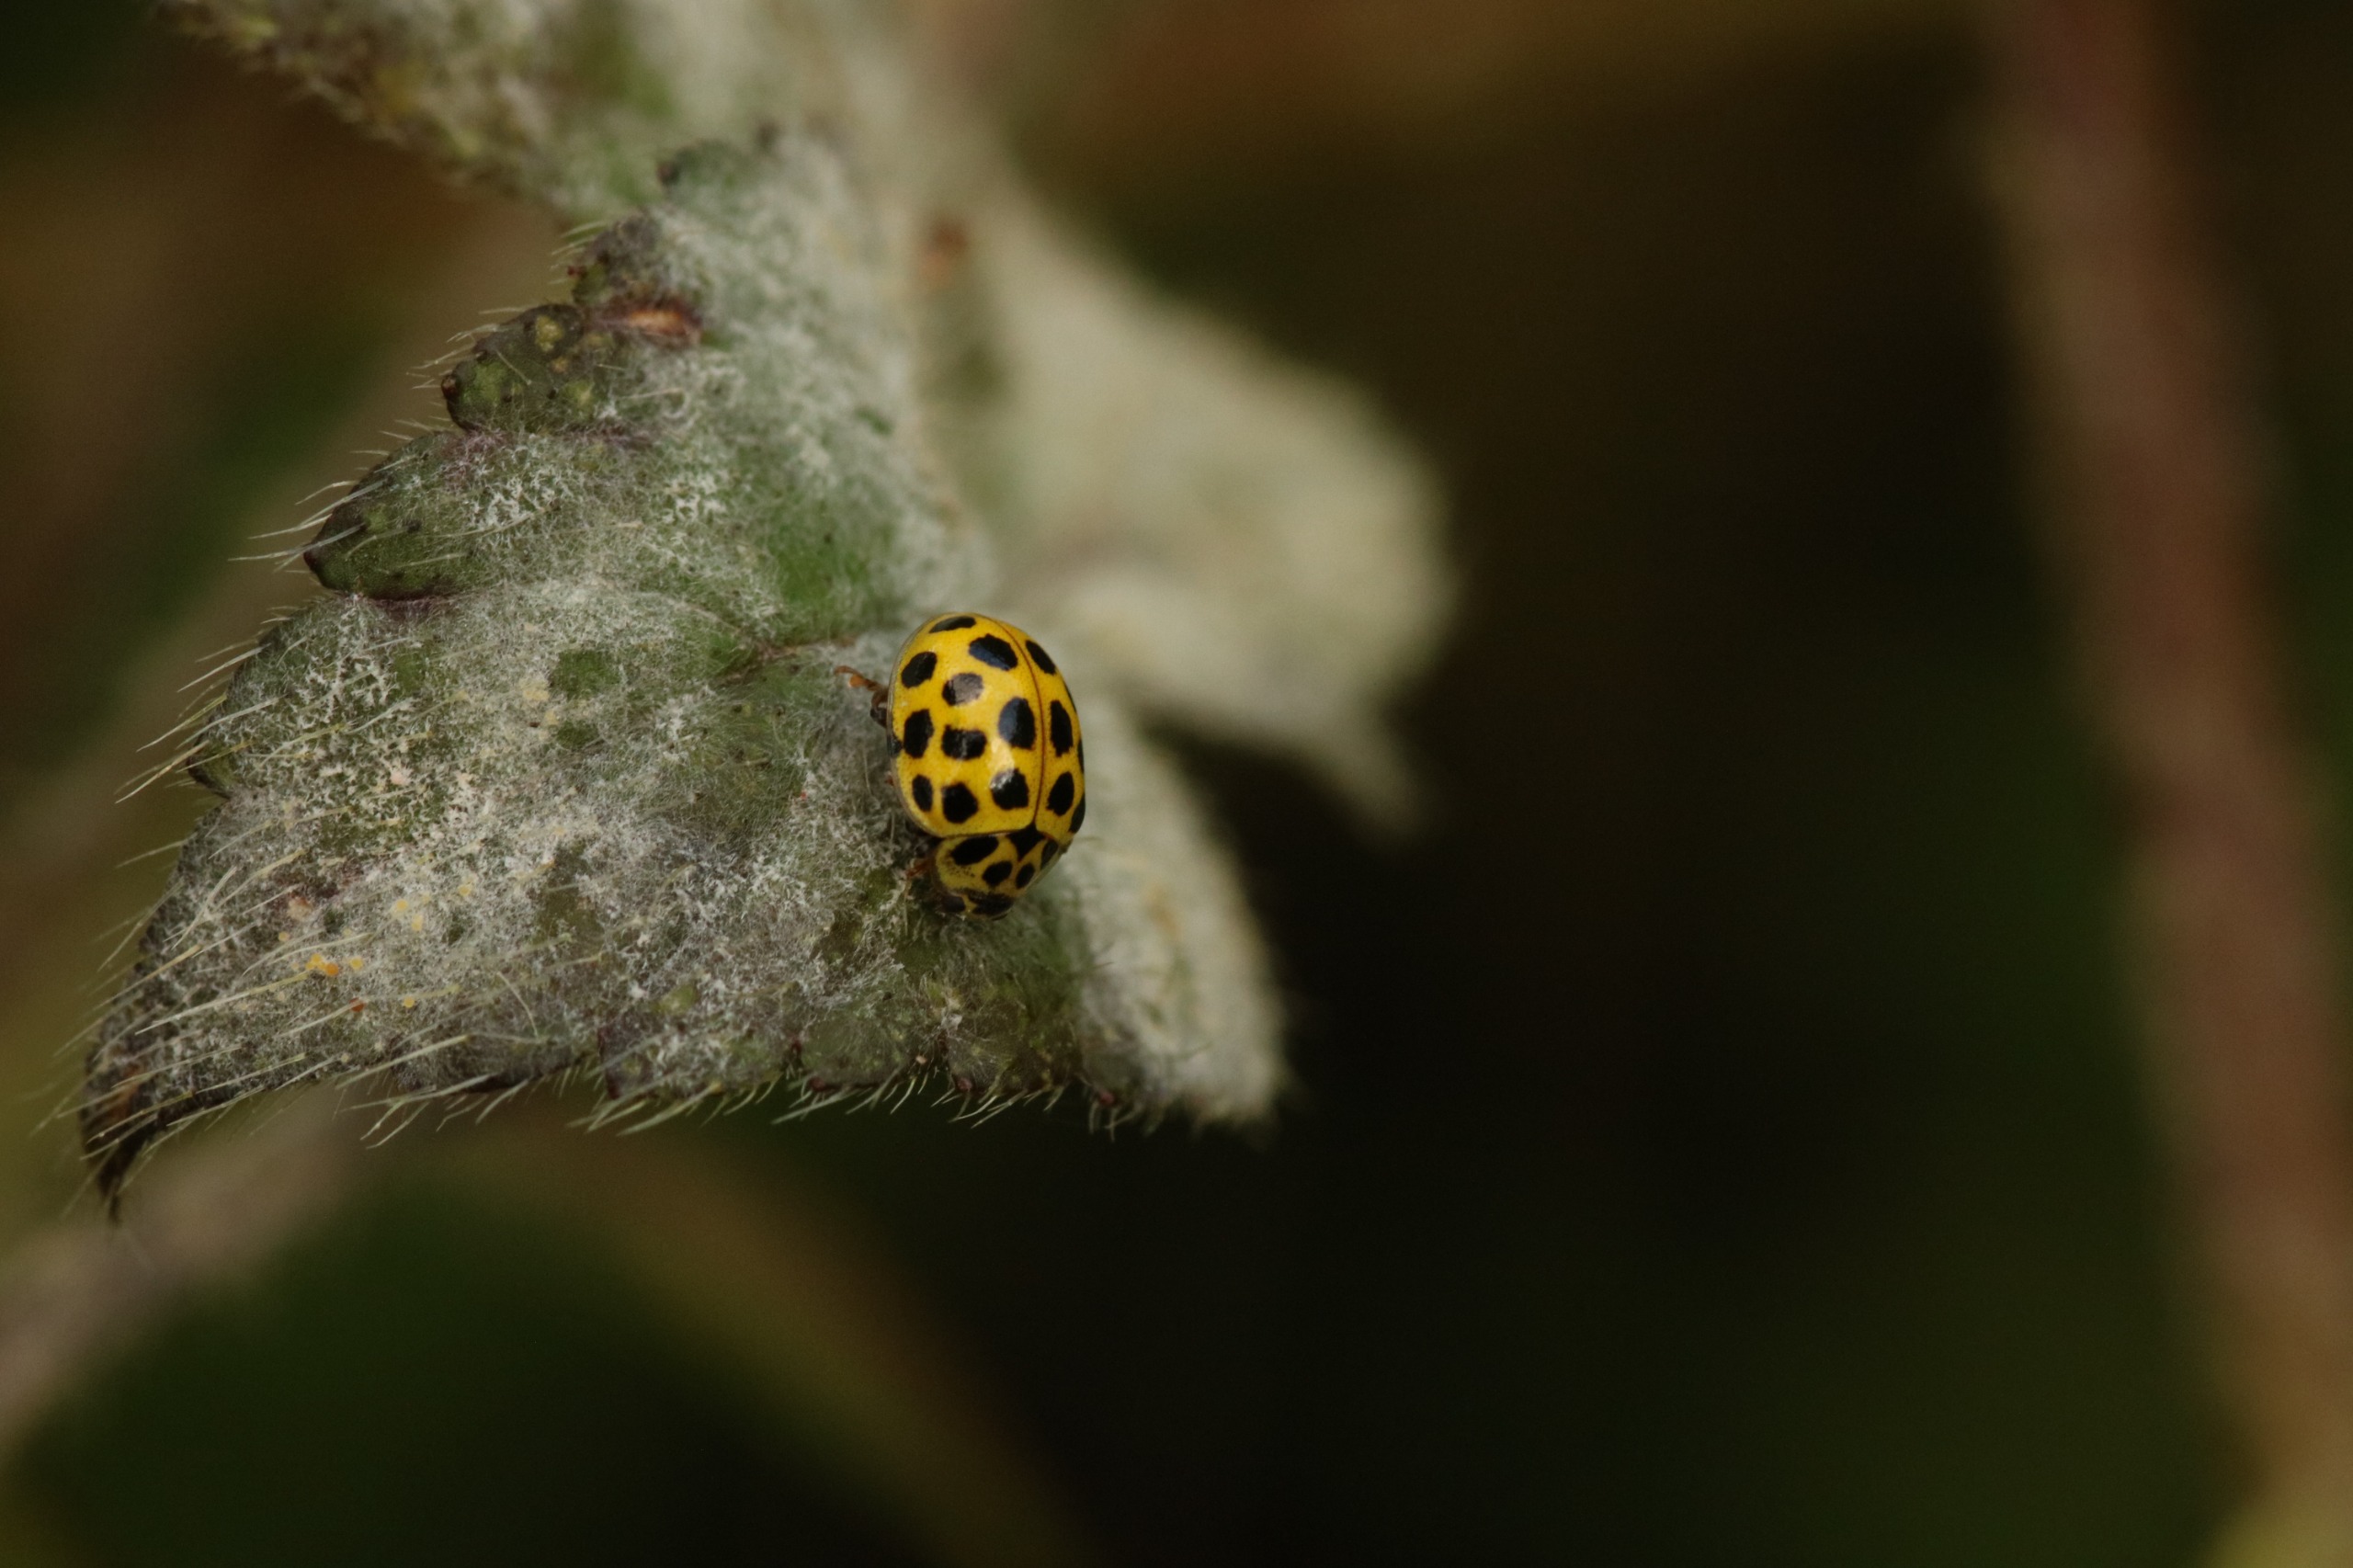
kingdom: Animalia
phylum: Arthropoda
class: Insecta
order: Coleoptera
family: Coccinellidae
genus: Psyllobora
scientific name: Psyllobora vigintiduopunctata
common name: Toogtyveplettet mariehøne
